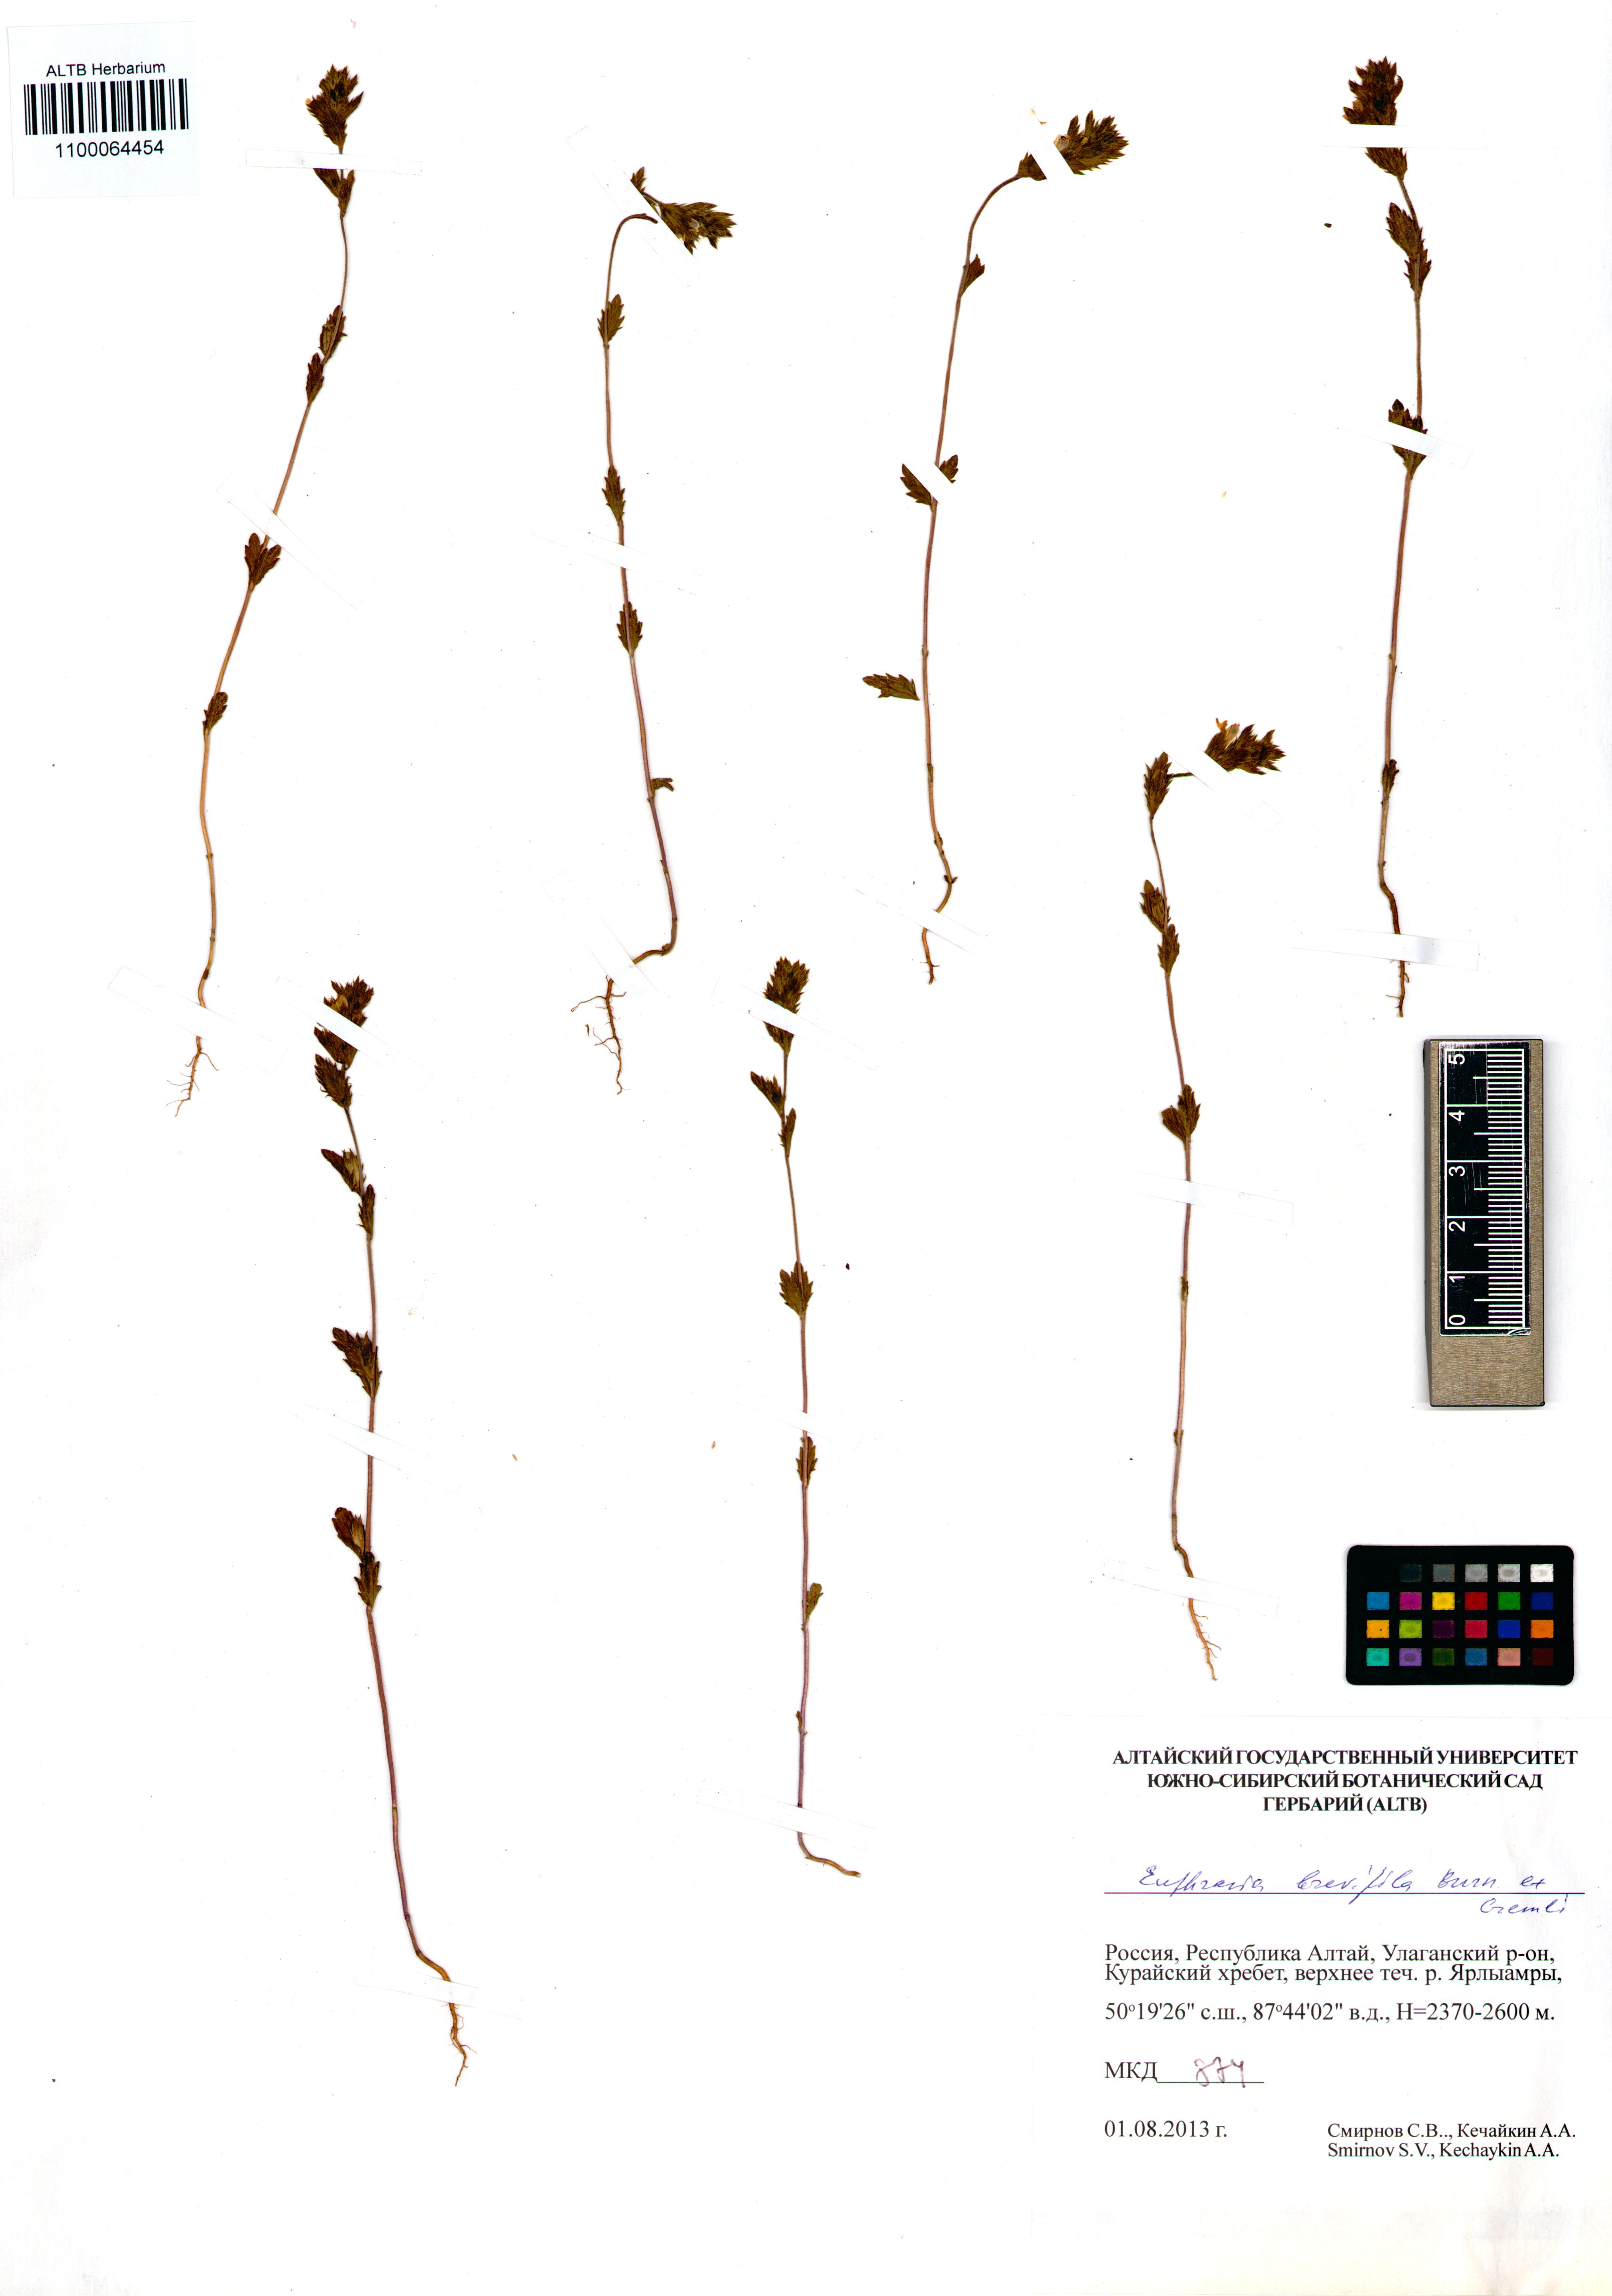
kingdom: Plantae
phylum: Tracheophyta
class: Magnoliopsida
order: Lamiales
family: Orobanchaceae
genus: Euphrasia
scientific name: Euphrasia vernalis
